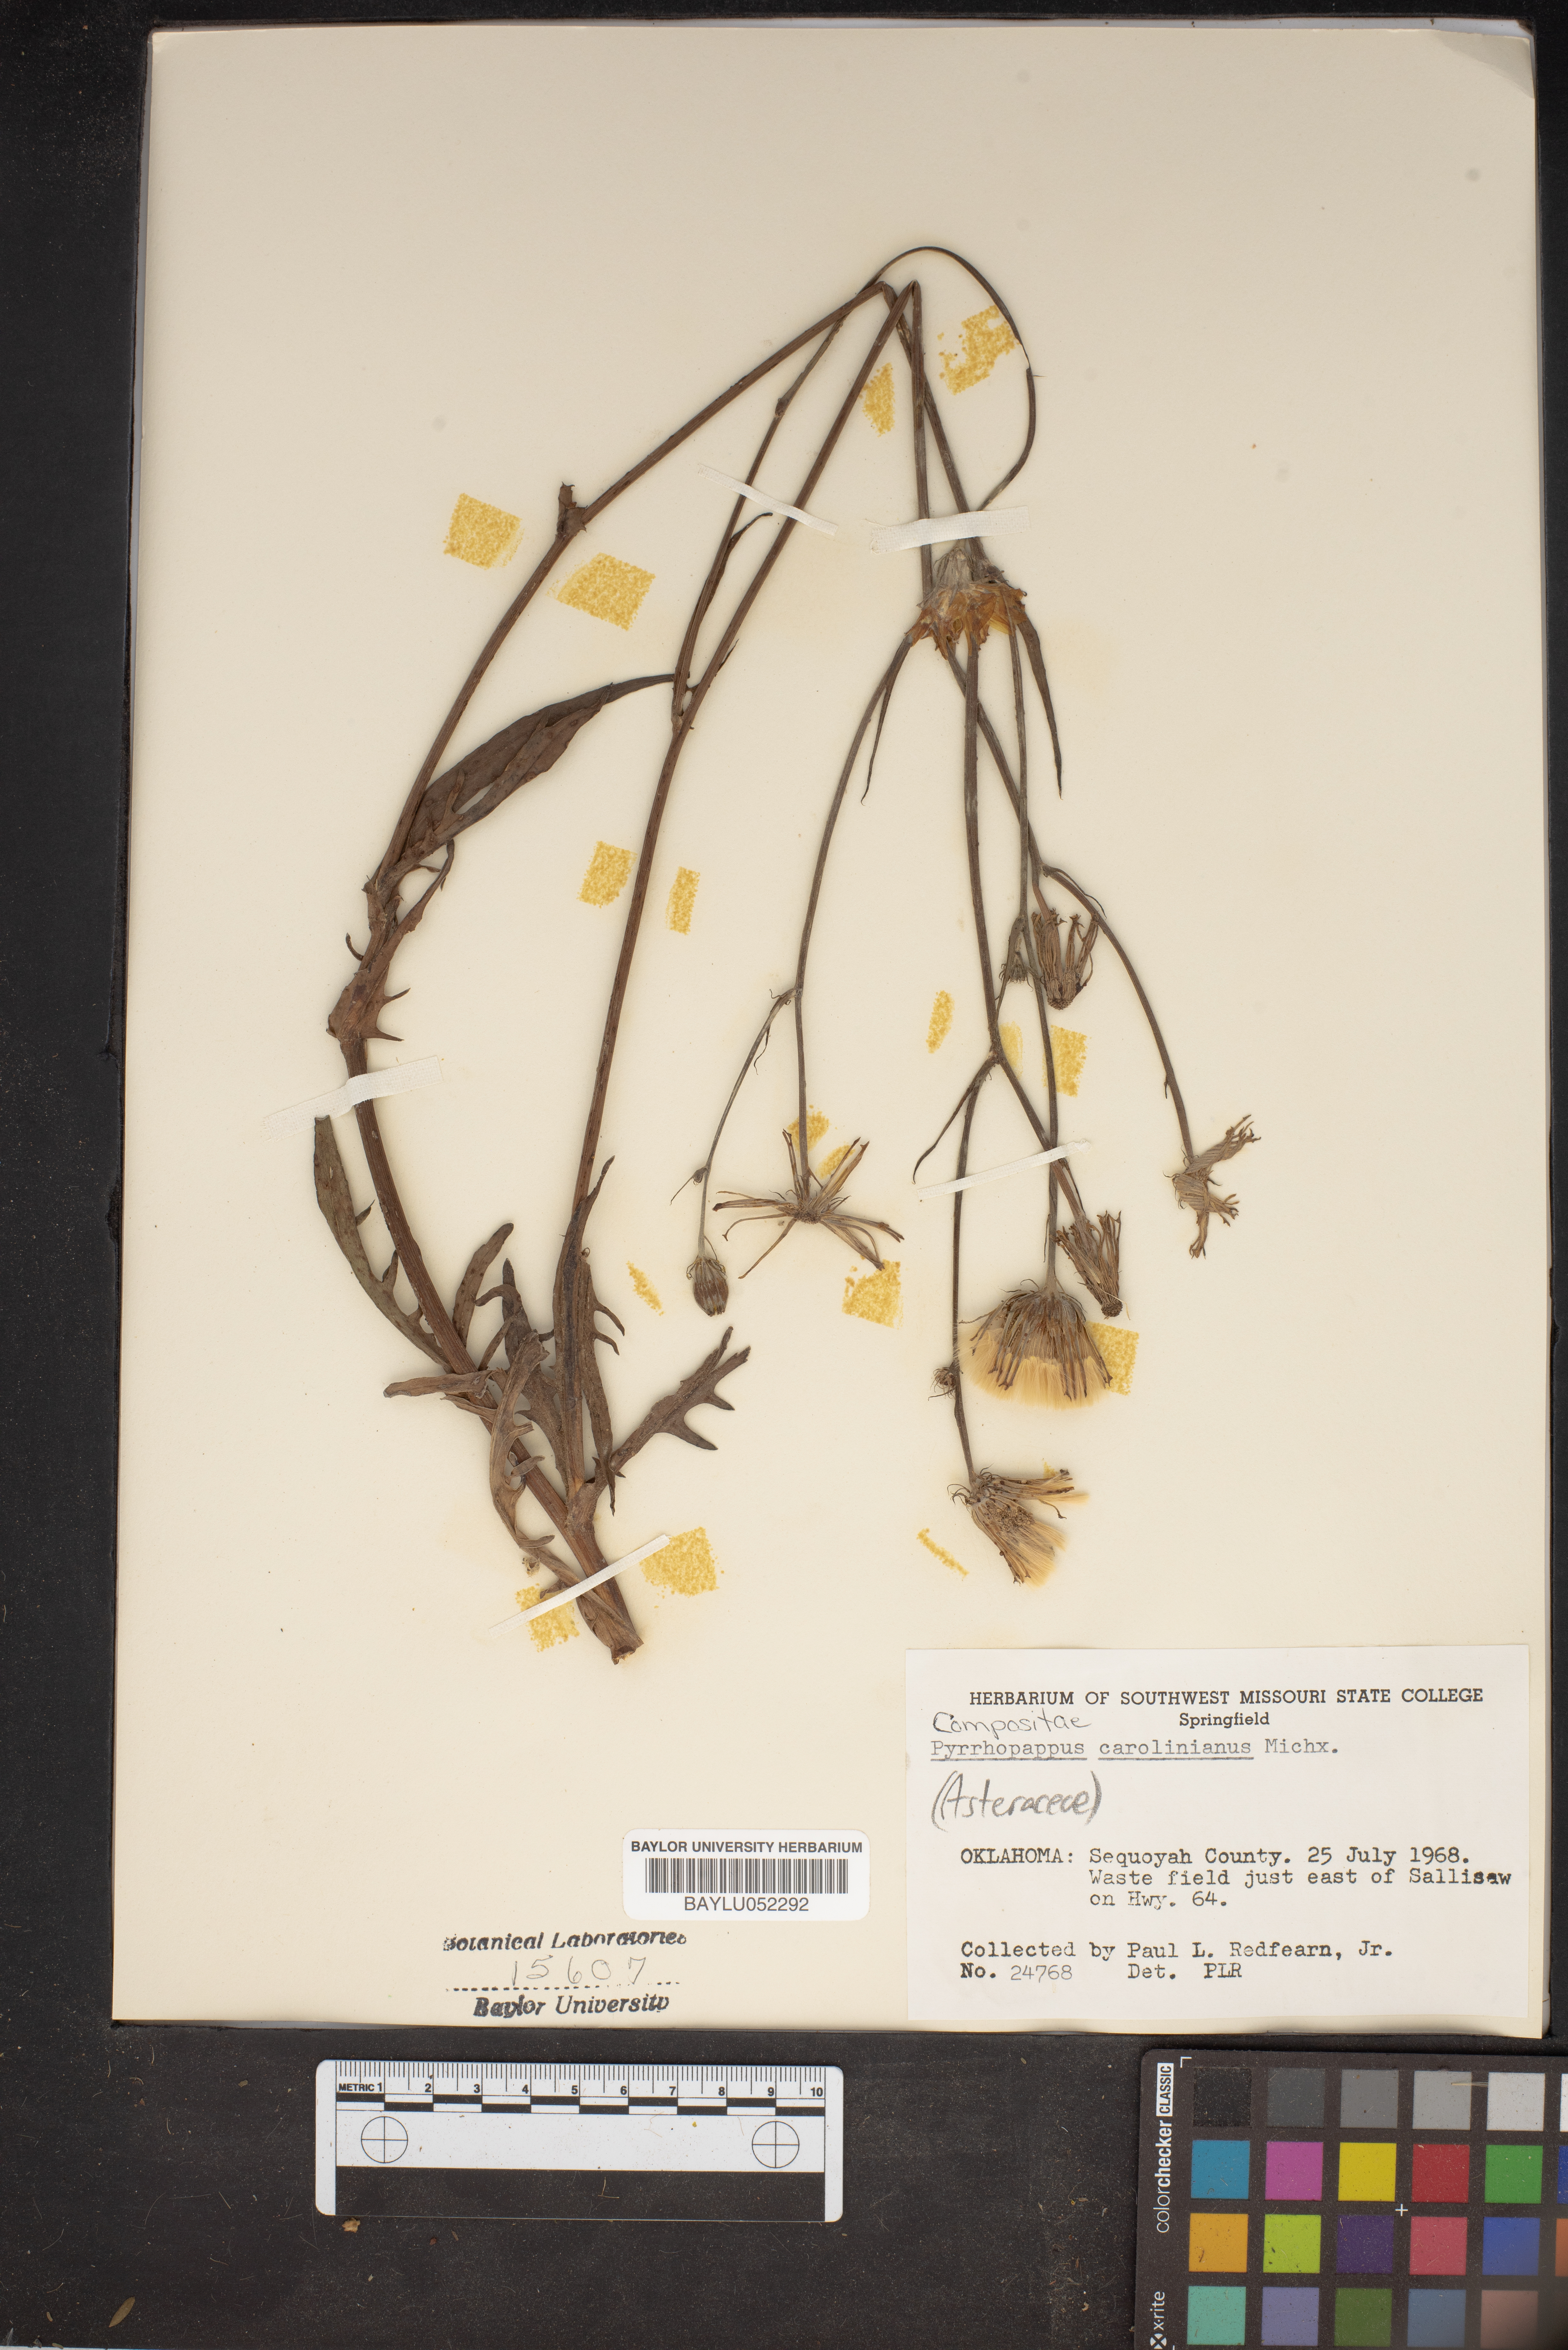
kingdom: Plantae
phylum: Tracheophyta
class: Magnoliopsida
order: Asterales
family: Asteraceae
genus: Pyrrhopappus
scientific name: Pyrrhopappus carolinianus
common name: Carolina desert-chicory
